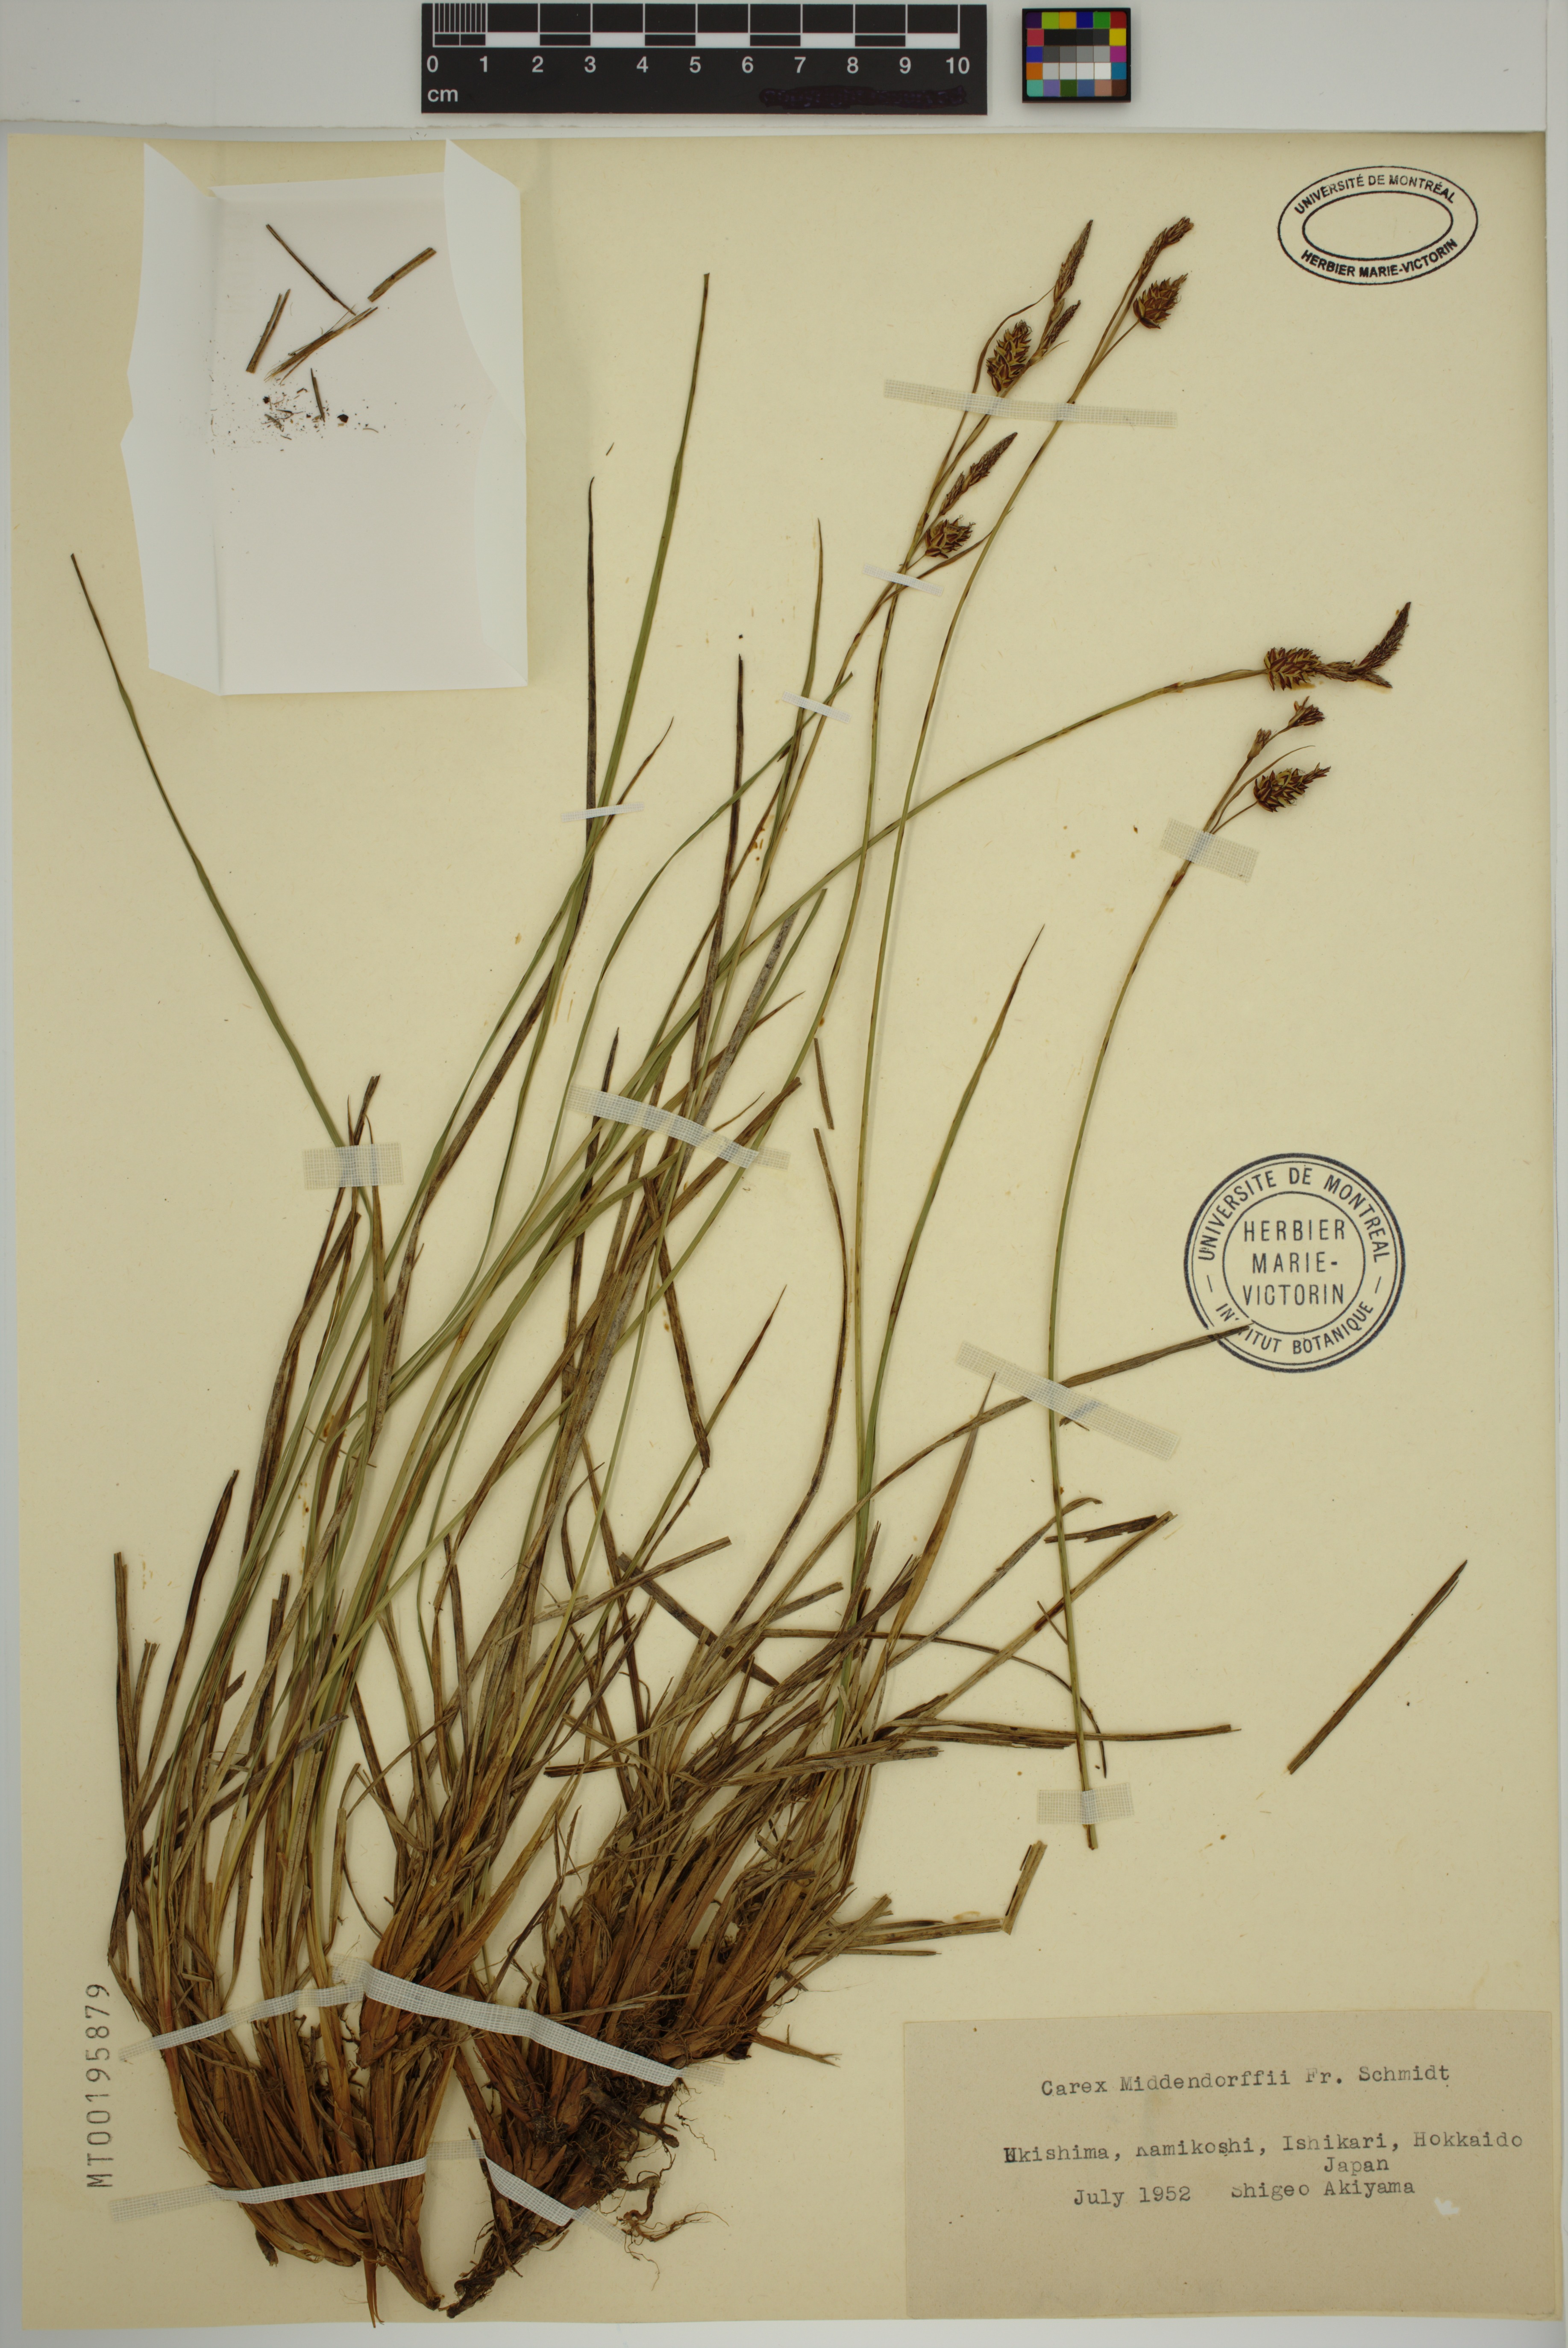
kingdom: Plantae
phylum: Tracheophyta
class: Liliopsida
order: Poales
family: Cyperaceae
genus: Carex
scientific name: Carex middendorffii
